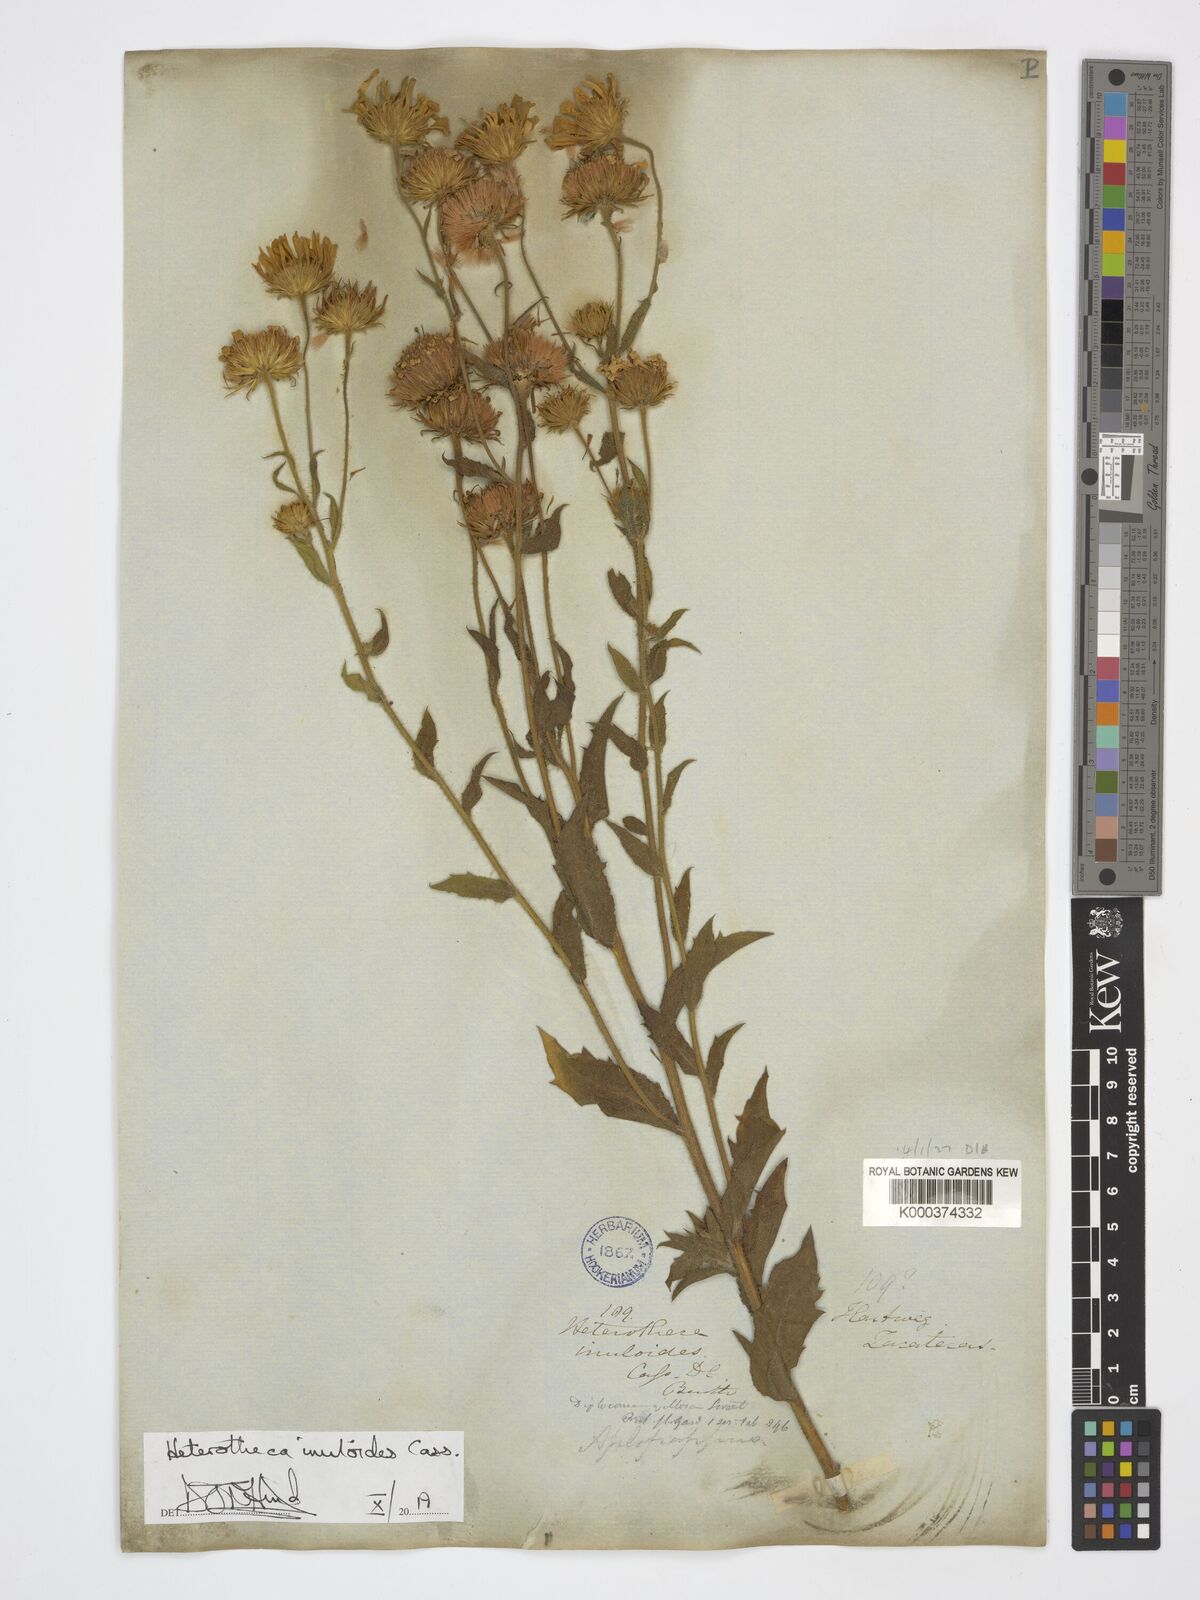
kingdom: Plantae
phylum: Tracheophyta
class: Magnoliopsida
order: Asterales
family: Asteraceae
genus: Heterotheca
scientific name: Heterotheca inuloides
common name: False arnica
